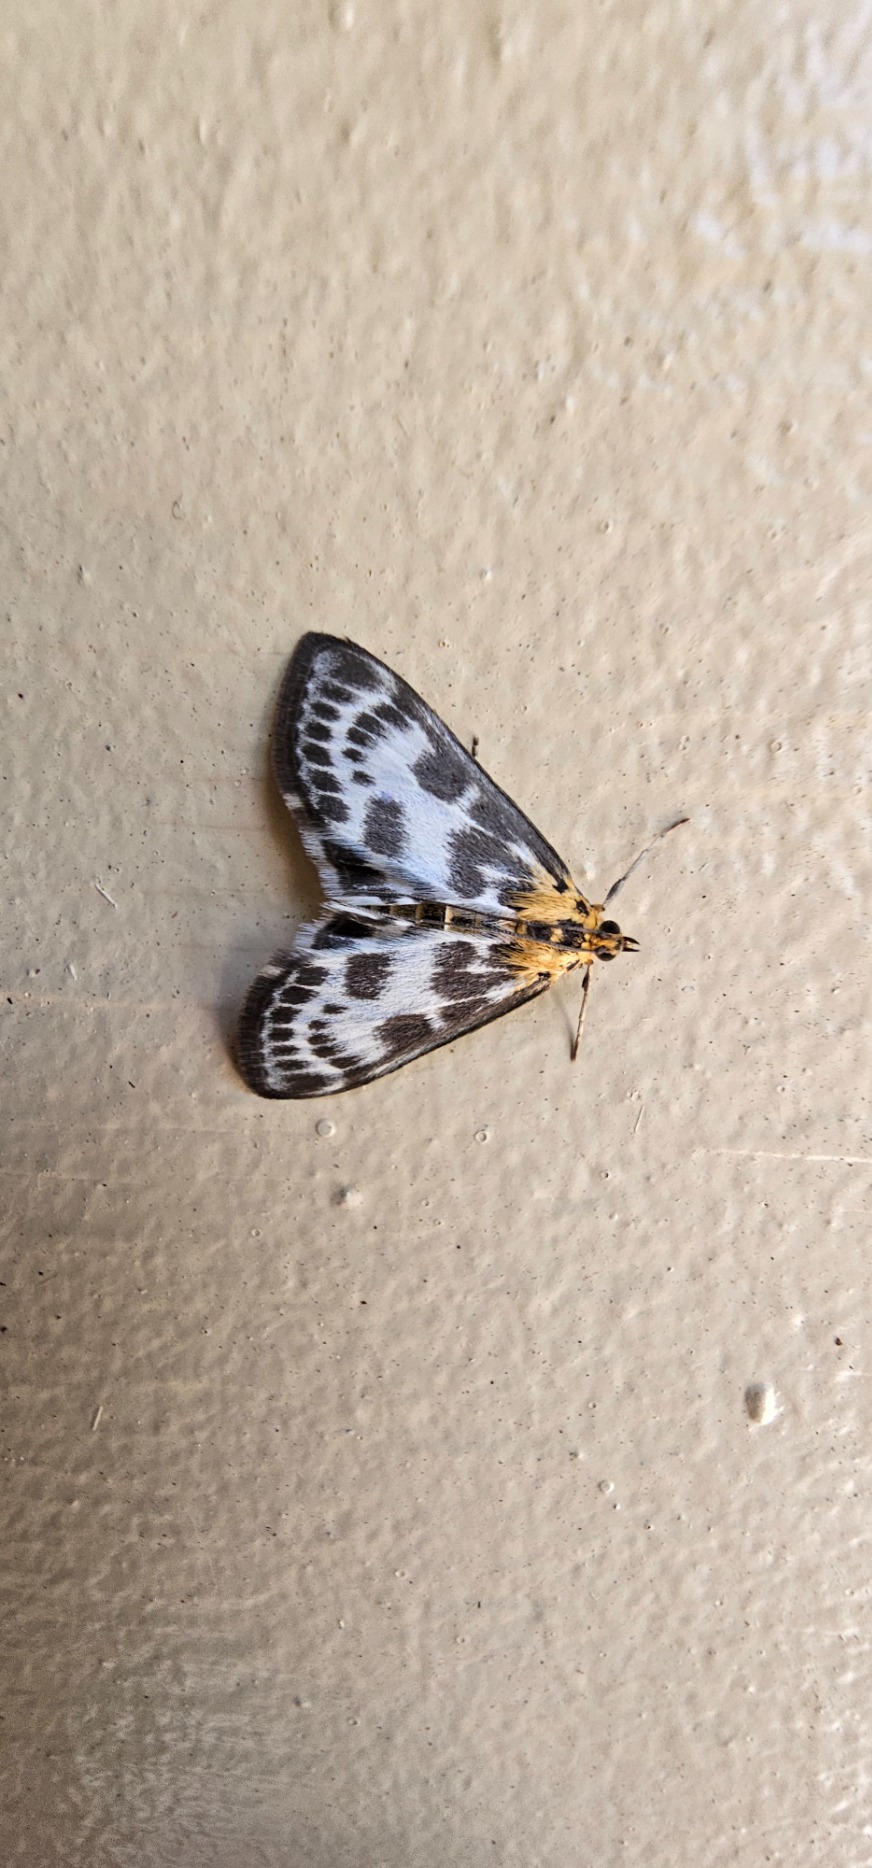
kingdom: Animalia
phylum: Arthropoda
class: Insecta
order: Lepidoptera
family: Crambidae
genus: Anania
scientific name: Anania hortulata
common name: Nældehalvmøl
